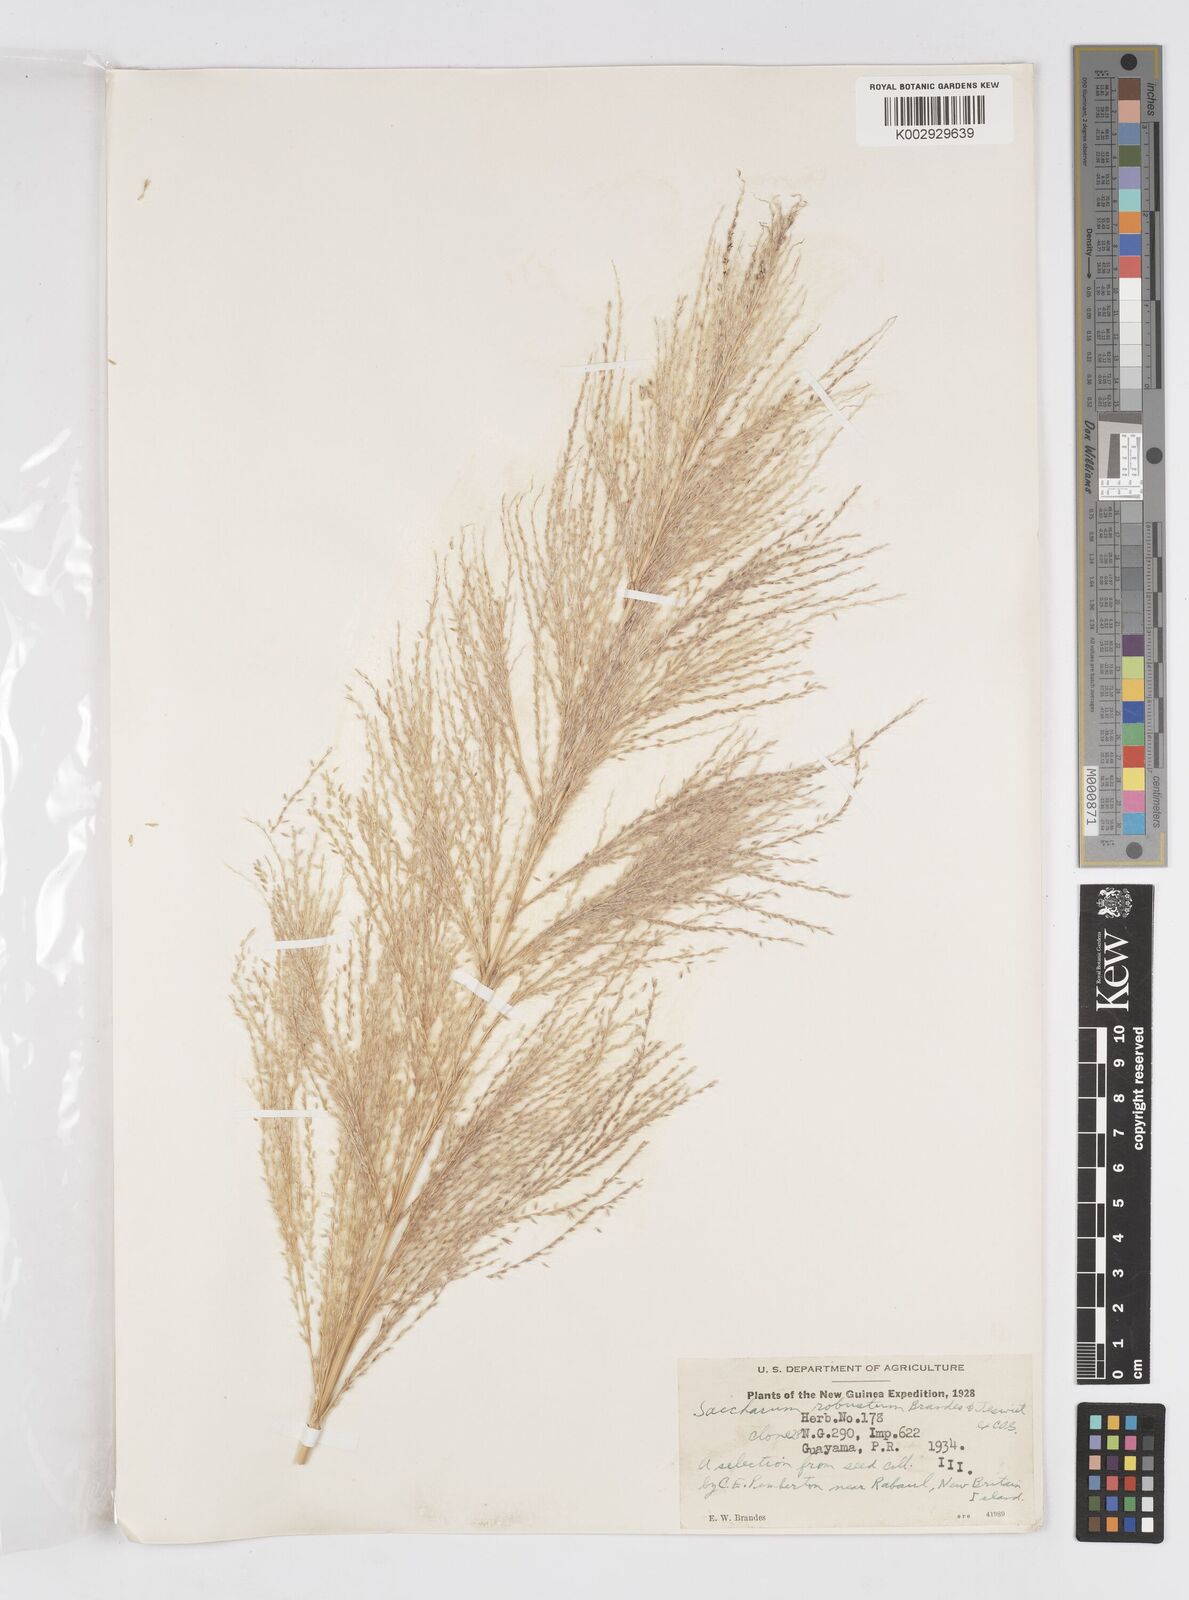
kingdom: Plantae
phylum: Tracheophyta
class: Liliopsida
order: Poales
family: Poaceae
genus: Saccharum
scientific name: Saccharum robustum
